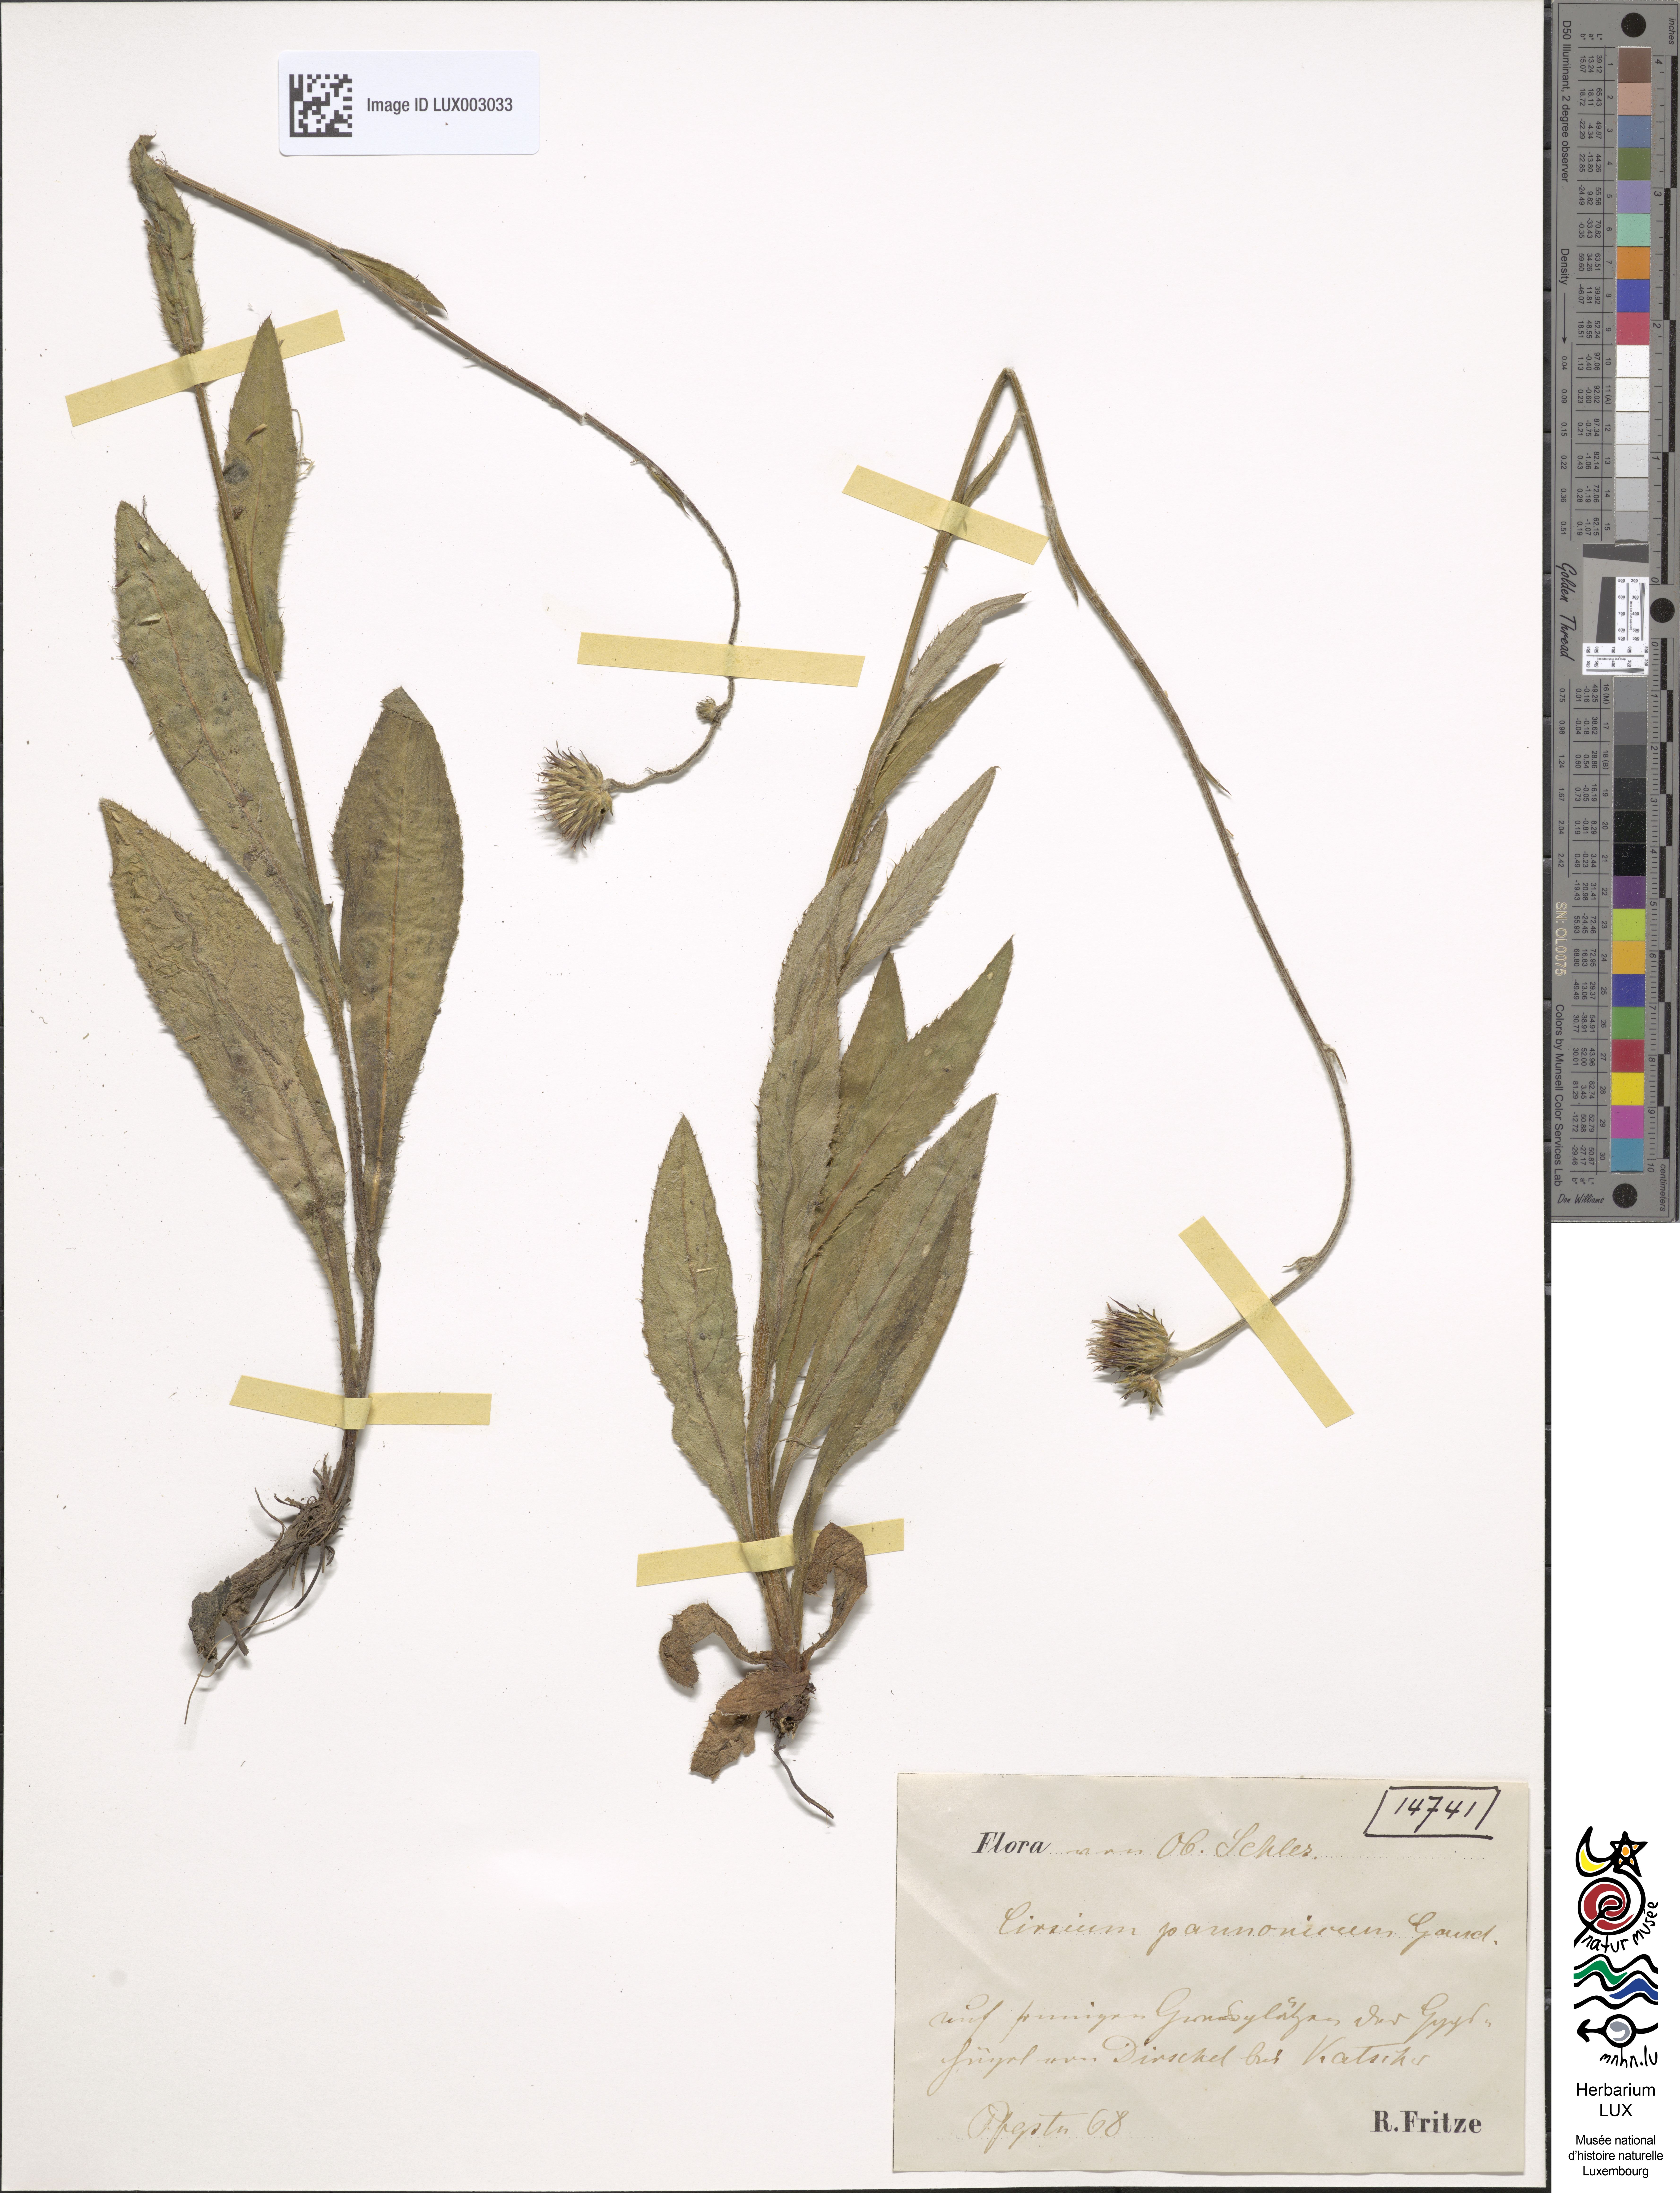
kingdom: Plantae
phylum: Tracheophyta
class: Magnoliopsida
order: Asterales
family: Asteraceae
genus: Cirsium
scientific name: Cirsium pannonicum
